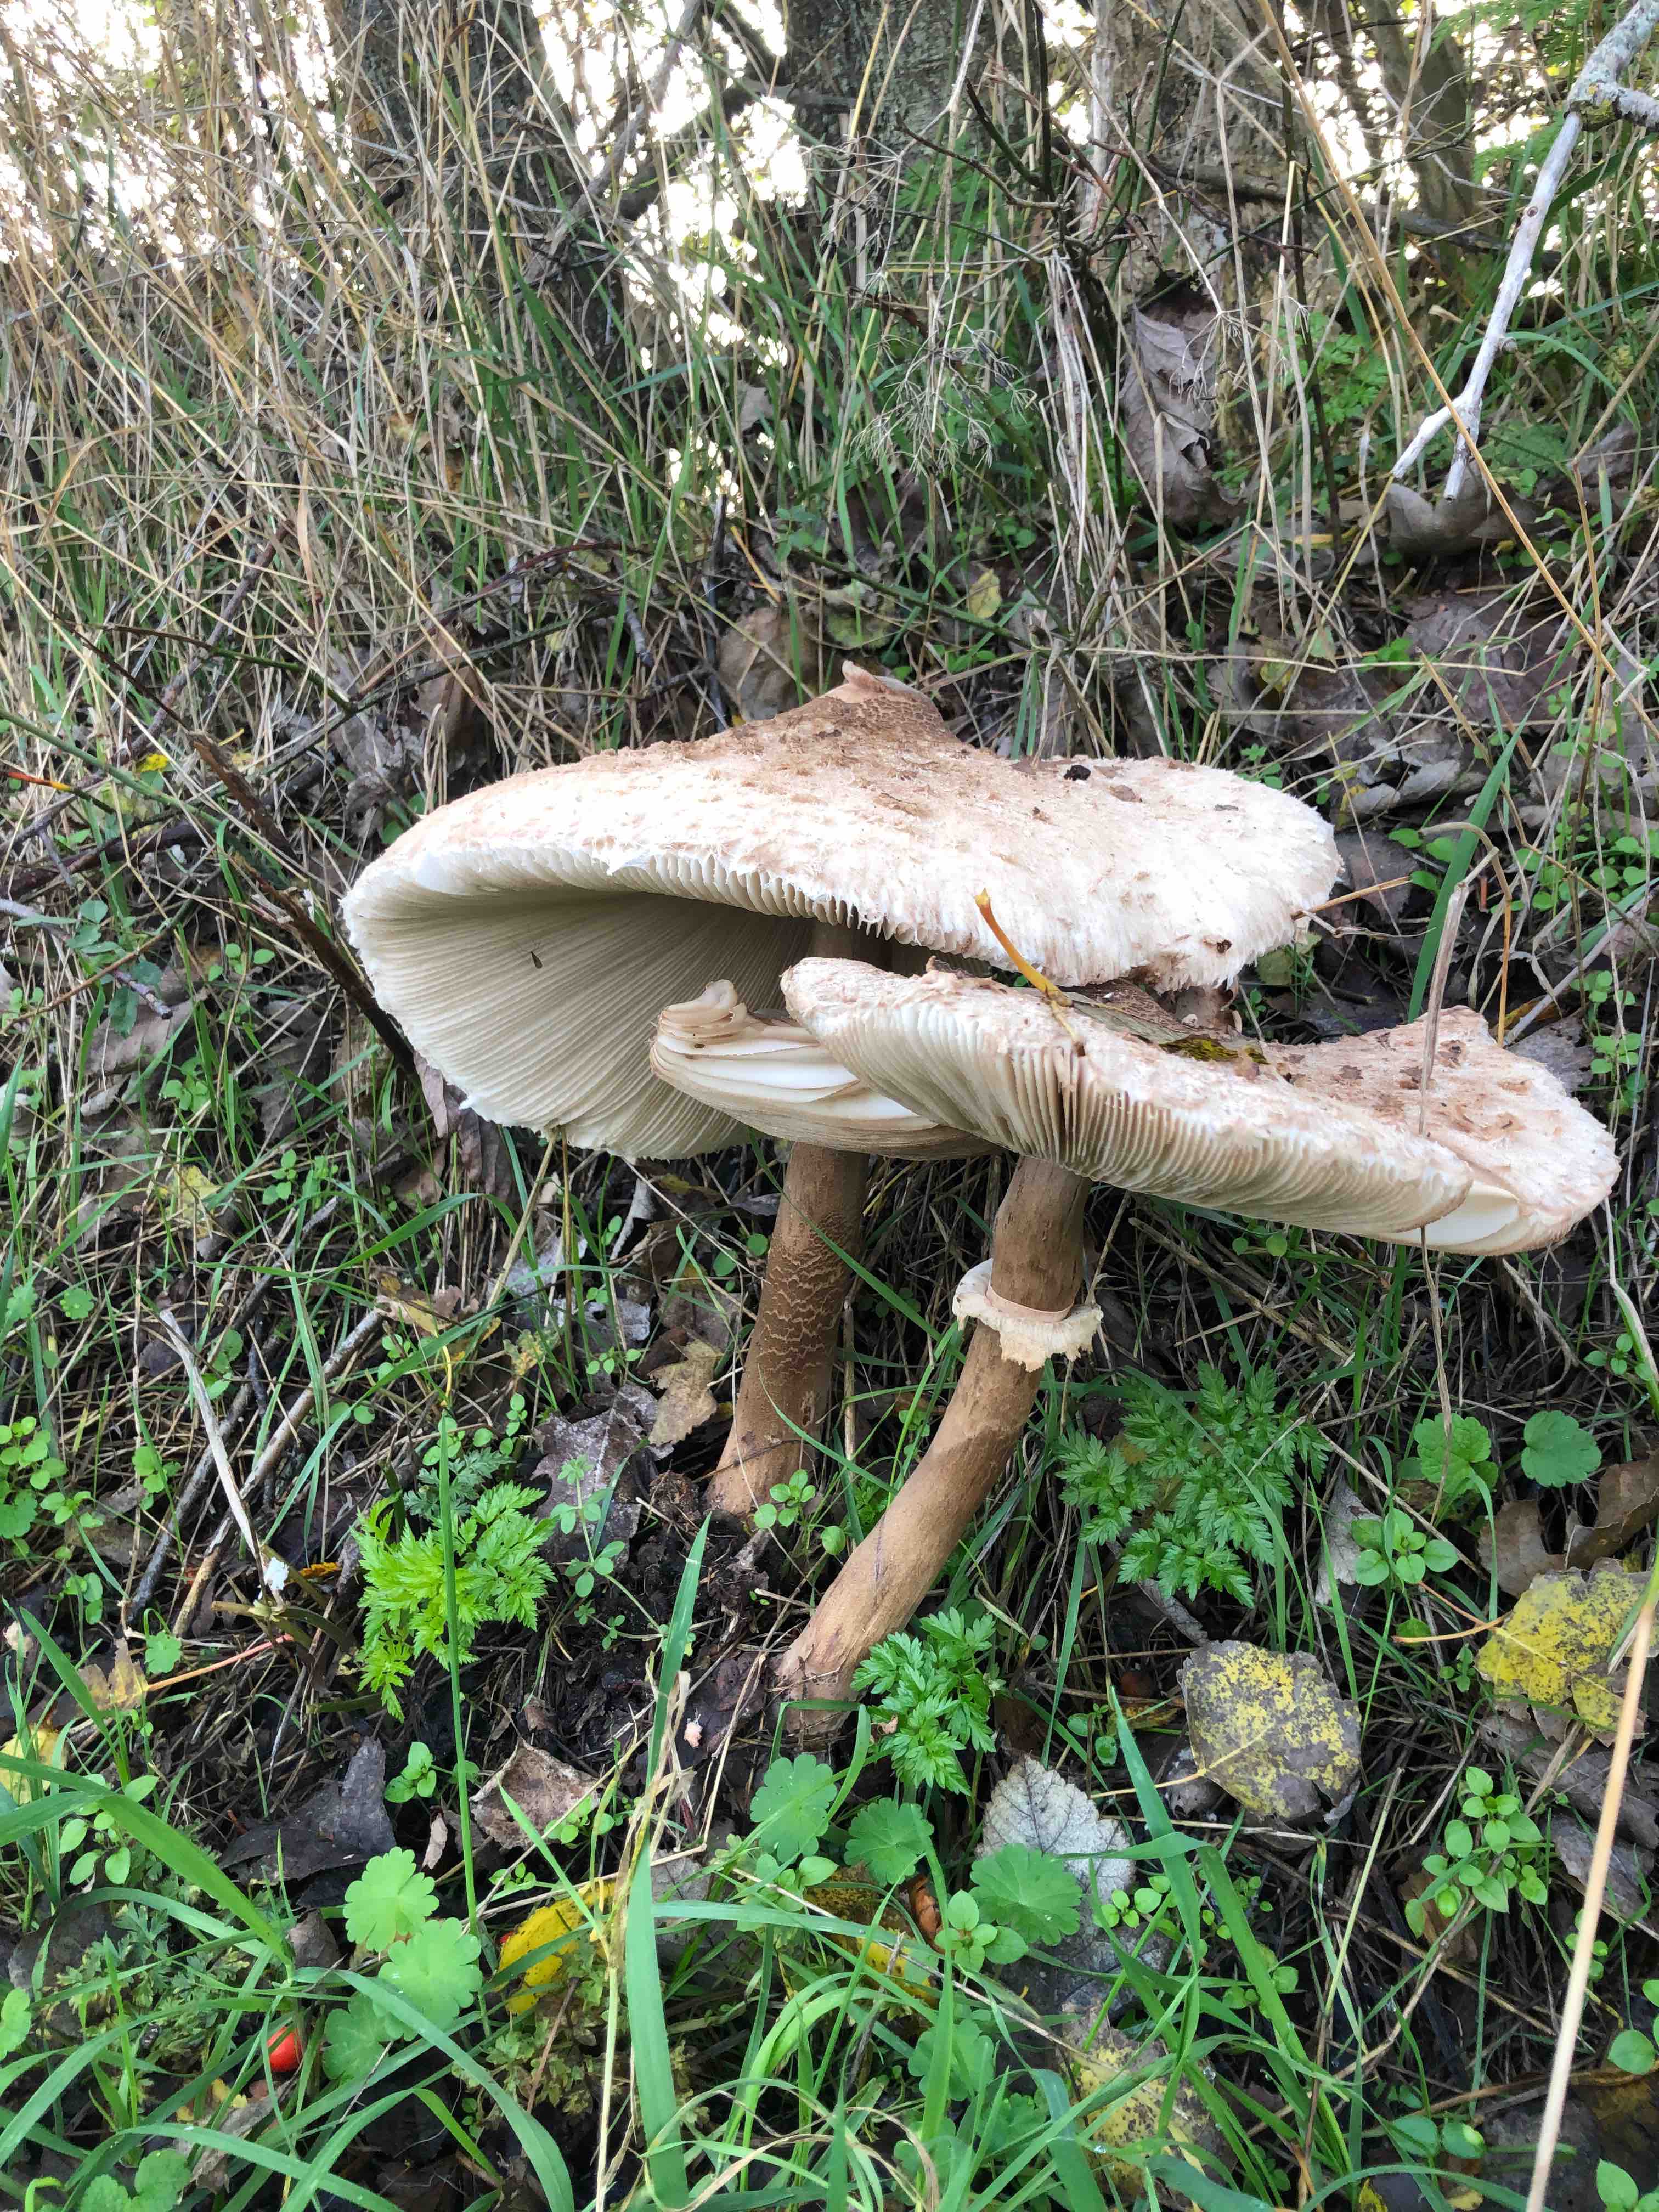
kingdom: Fungi
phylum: Basidiomycota
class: Agaricomycetes
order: Agaricales
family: Agaricaceae
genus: Macrolepiota
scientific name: Macrolepiota procera
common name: stor kæmpeparasolhat
